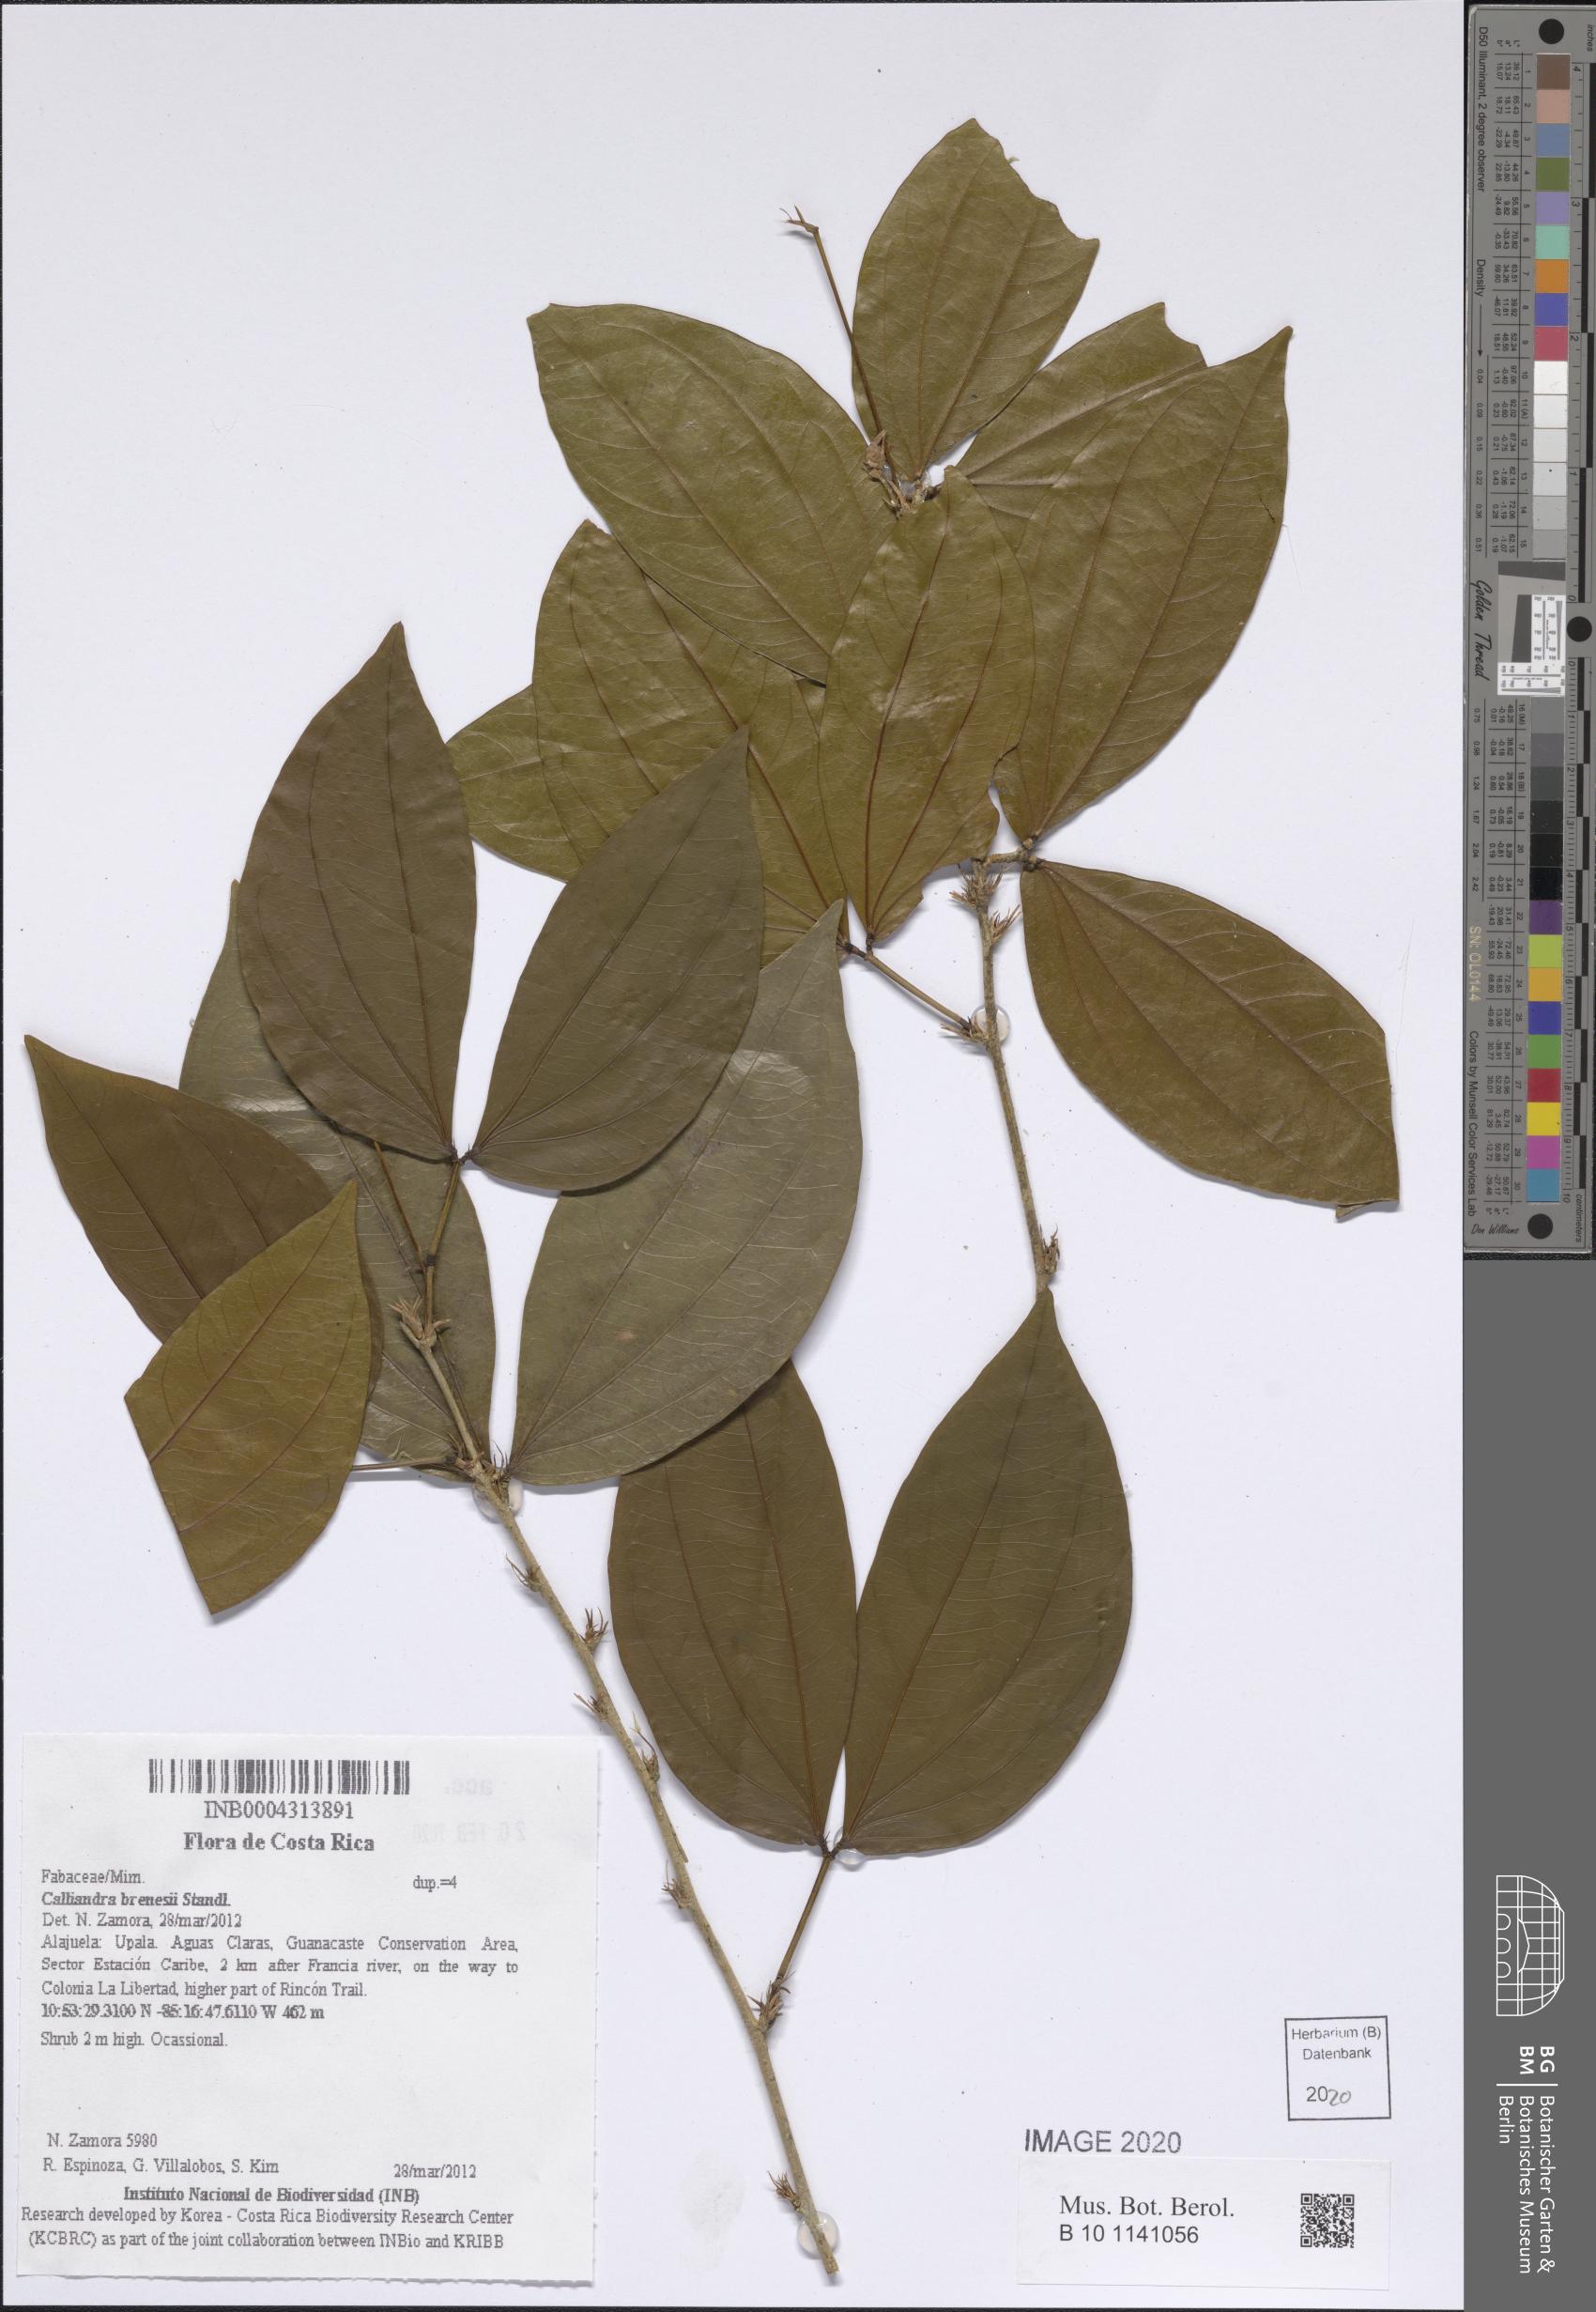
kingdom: Plantae
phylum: Tracheophyta
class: Magnoliopsida
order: Fabales
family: Fabaceae
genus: Calliandra
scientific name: Calliandra brenesii
